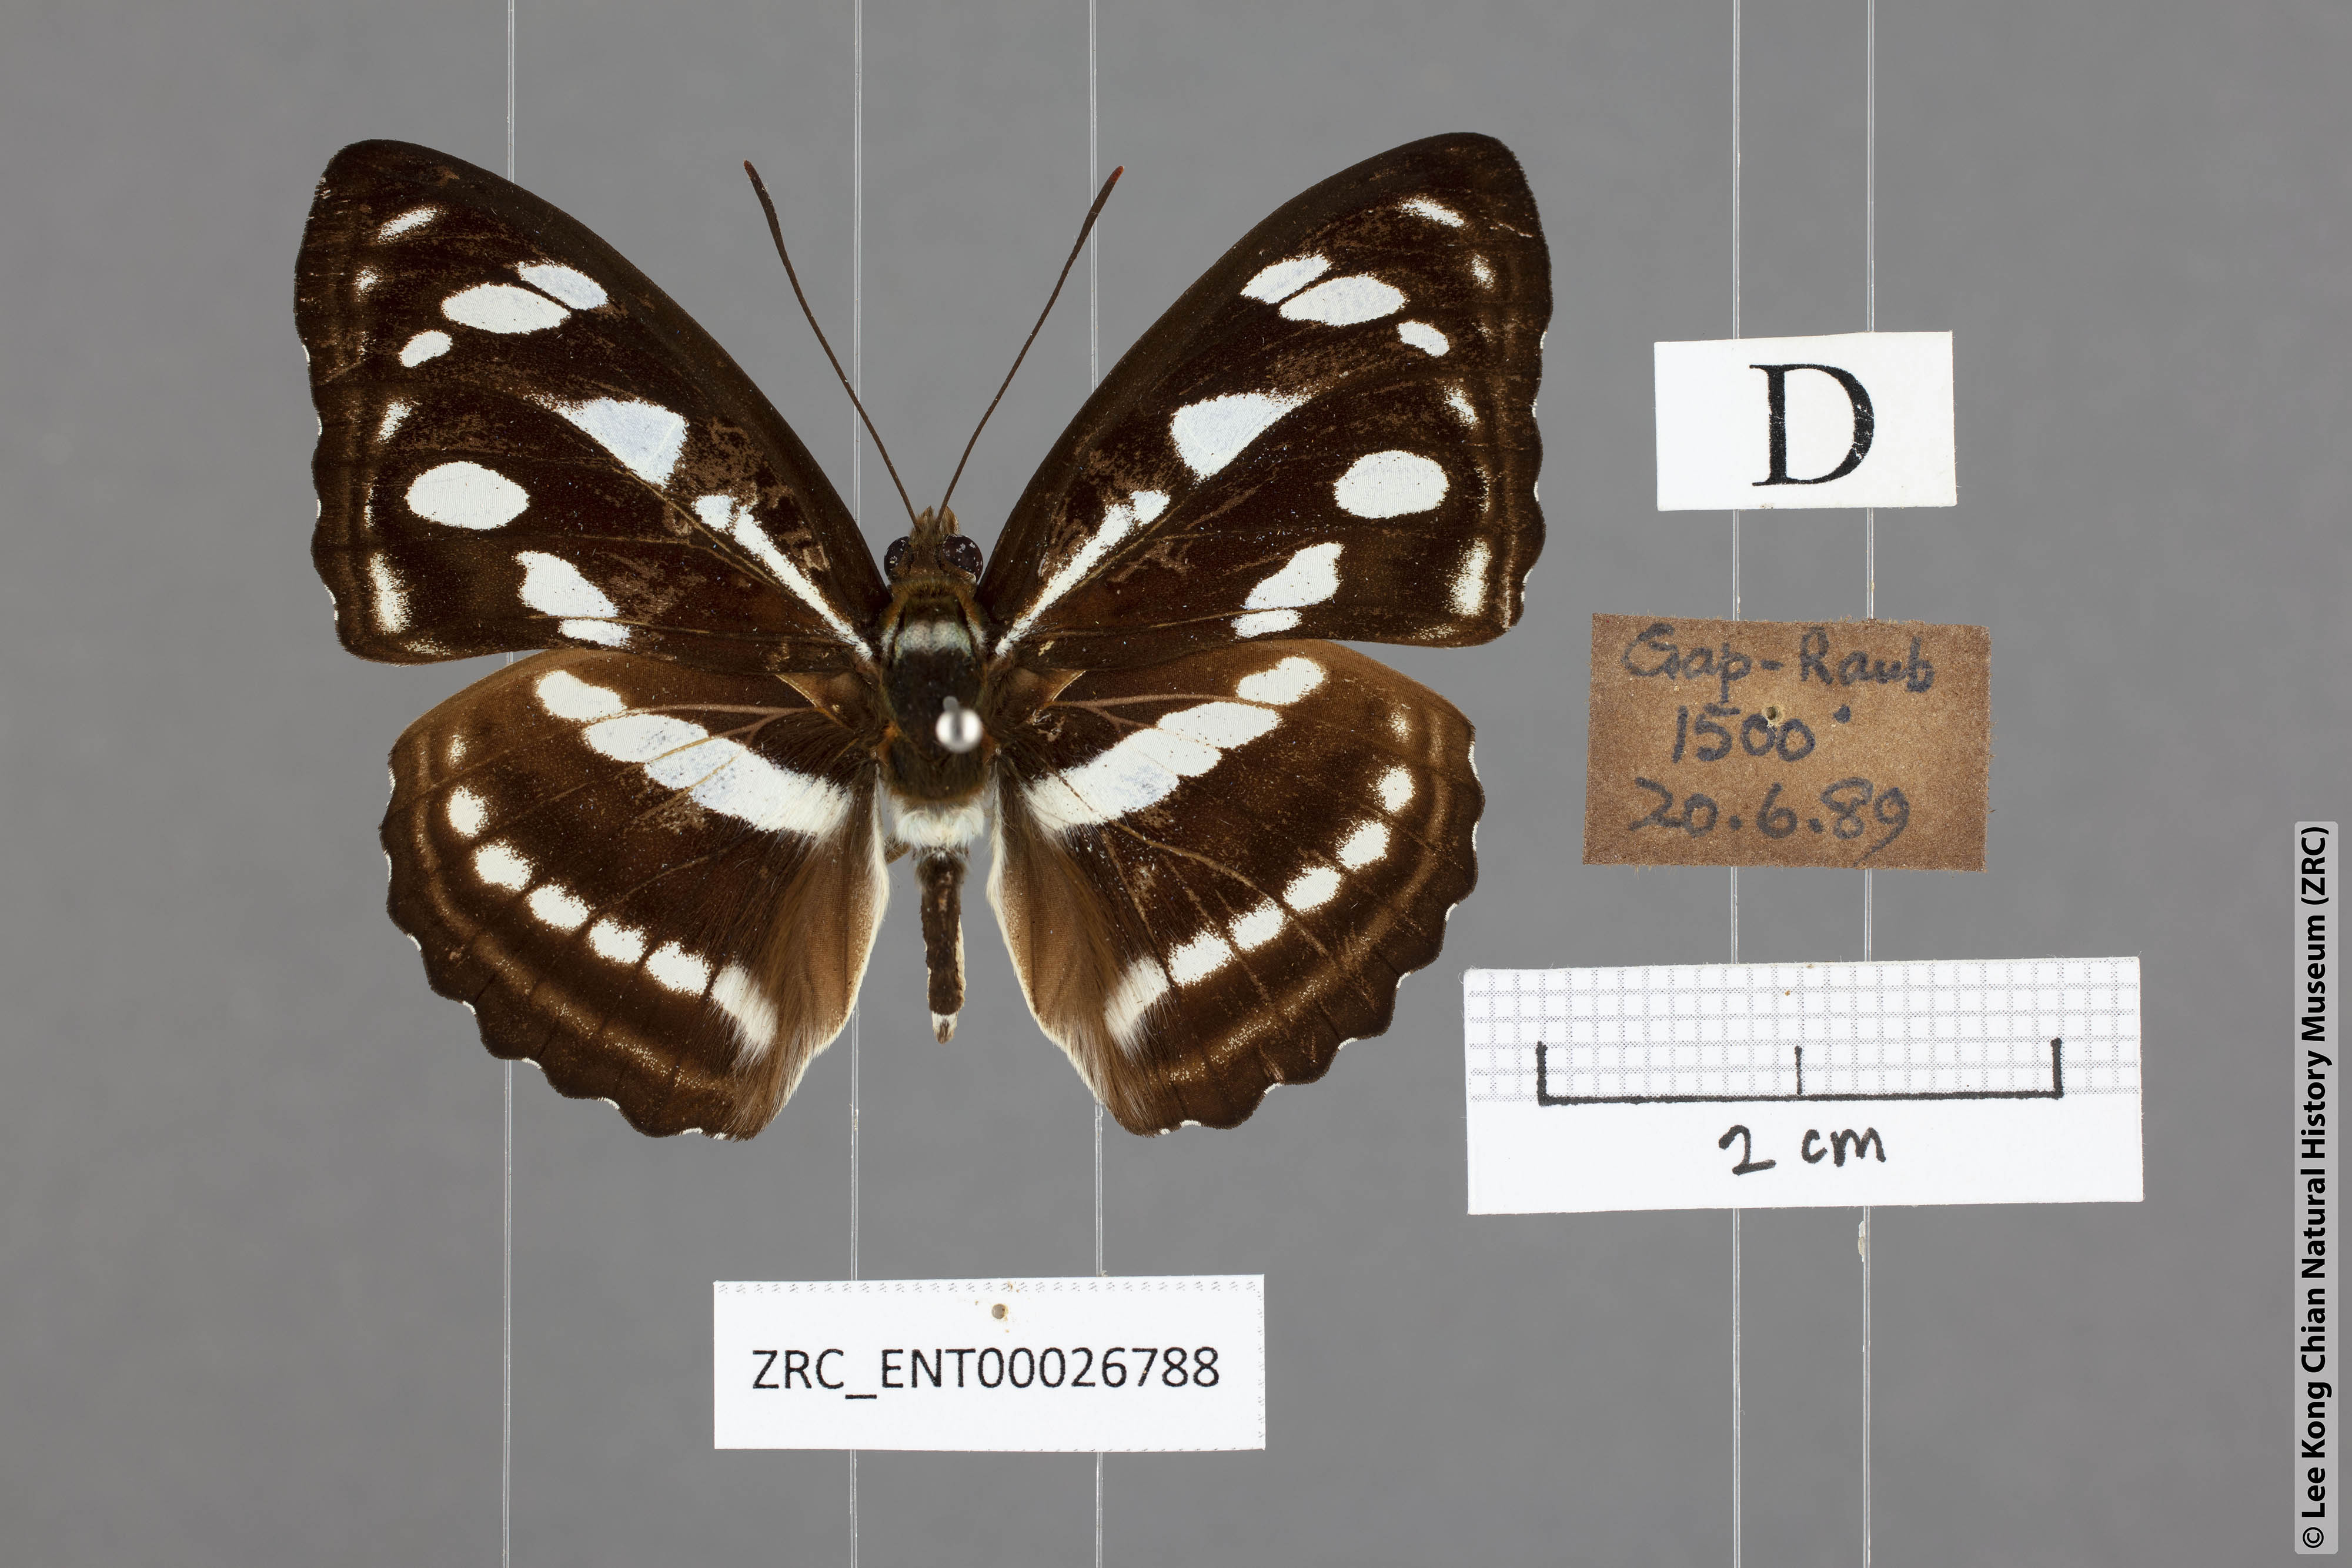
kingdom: Animalia
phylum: Arthropoda
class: Insecta
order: Lepidoptera
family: Nymphalidae
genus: Parathyma
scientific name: Parathyma reta
